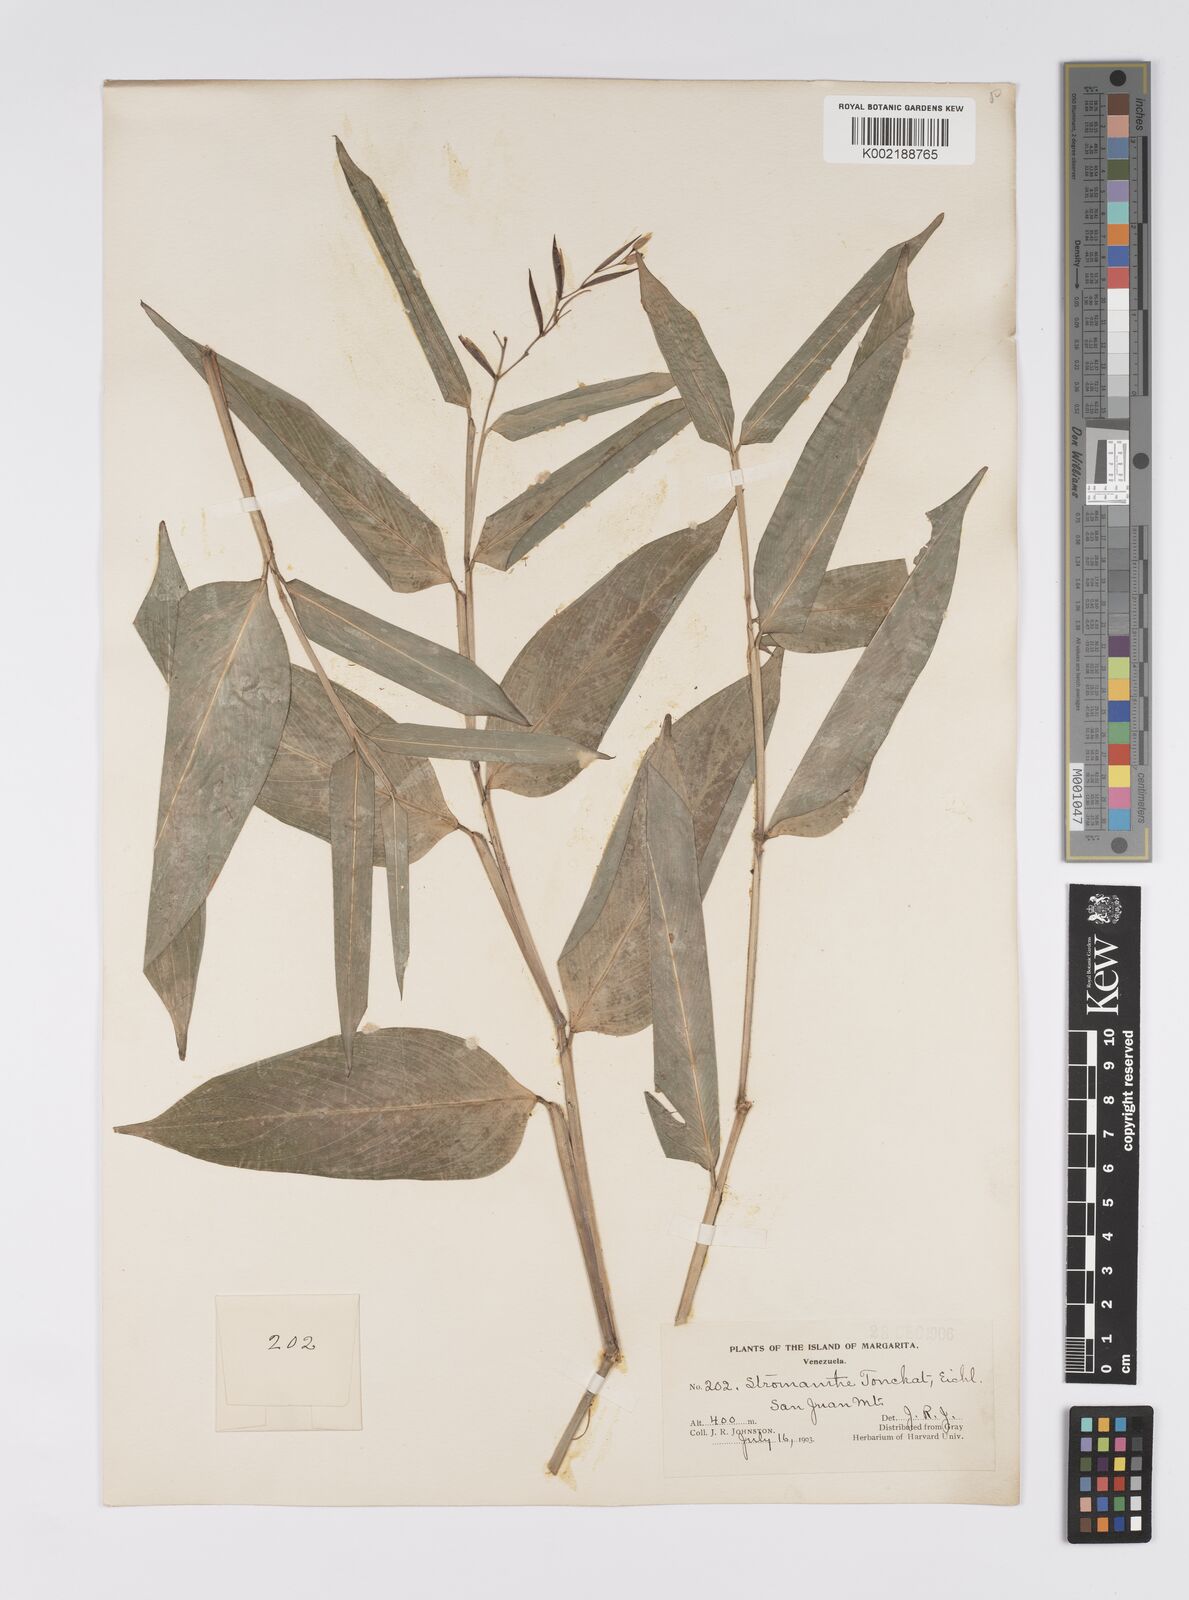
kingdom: Plantae
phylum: Tracheophyta
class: Liliopsida
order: Zingiberales
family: Marantaceae
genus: Stromanthe
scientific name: Stromanthe tonckat
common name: Stromanthe
